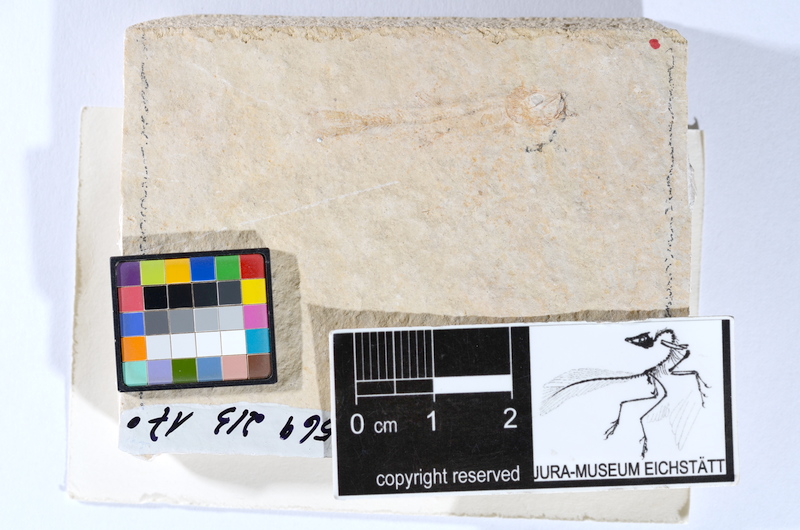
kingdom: Animalia
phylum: Chordata
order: Salmoniformes
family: Orthogonikleithridae
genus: Leptolepides
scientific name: Leptolepides sprattiformis
